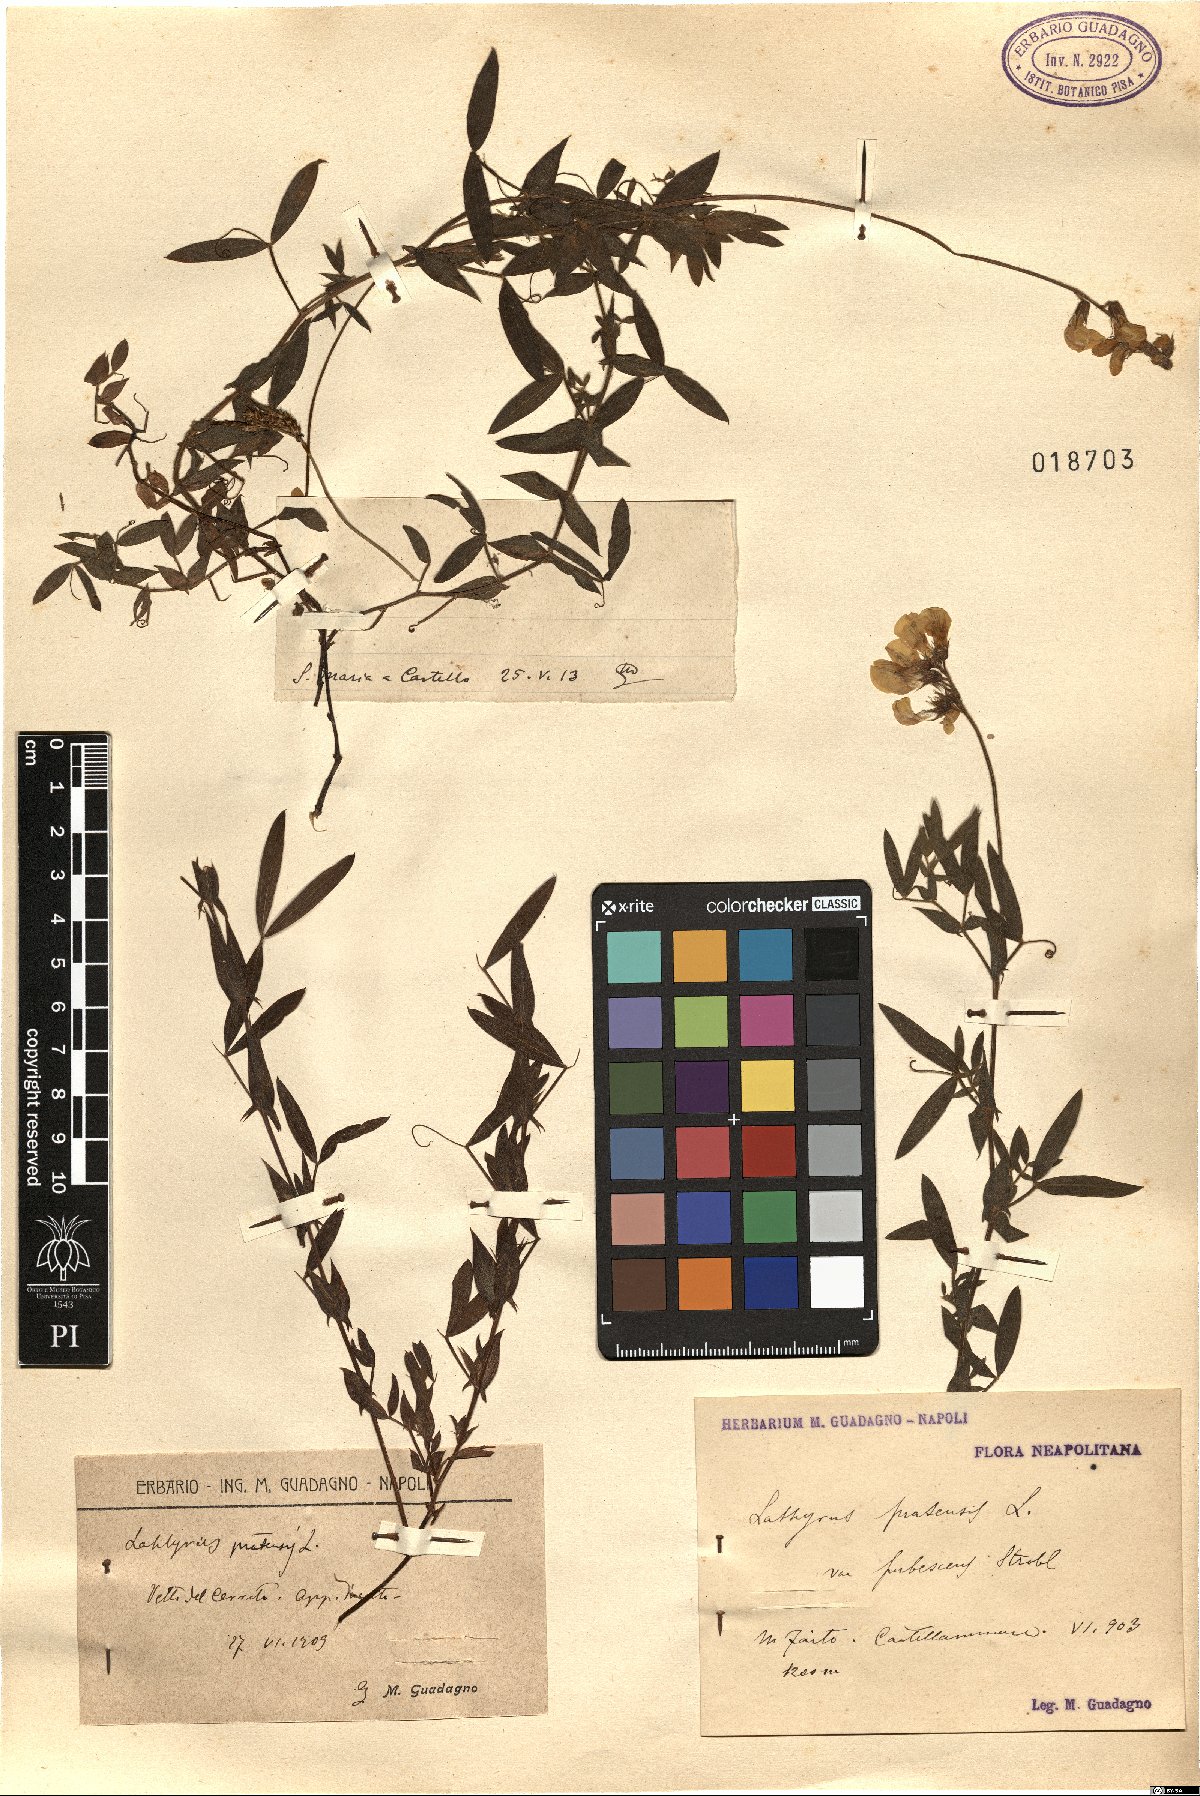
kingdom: Plantae
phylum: Tracheophyta
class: Magnoliopsida
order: Fabales
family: Fabaceae
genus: Lathyrus
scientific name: Lathyrus
